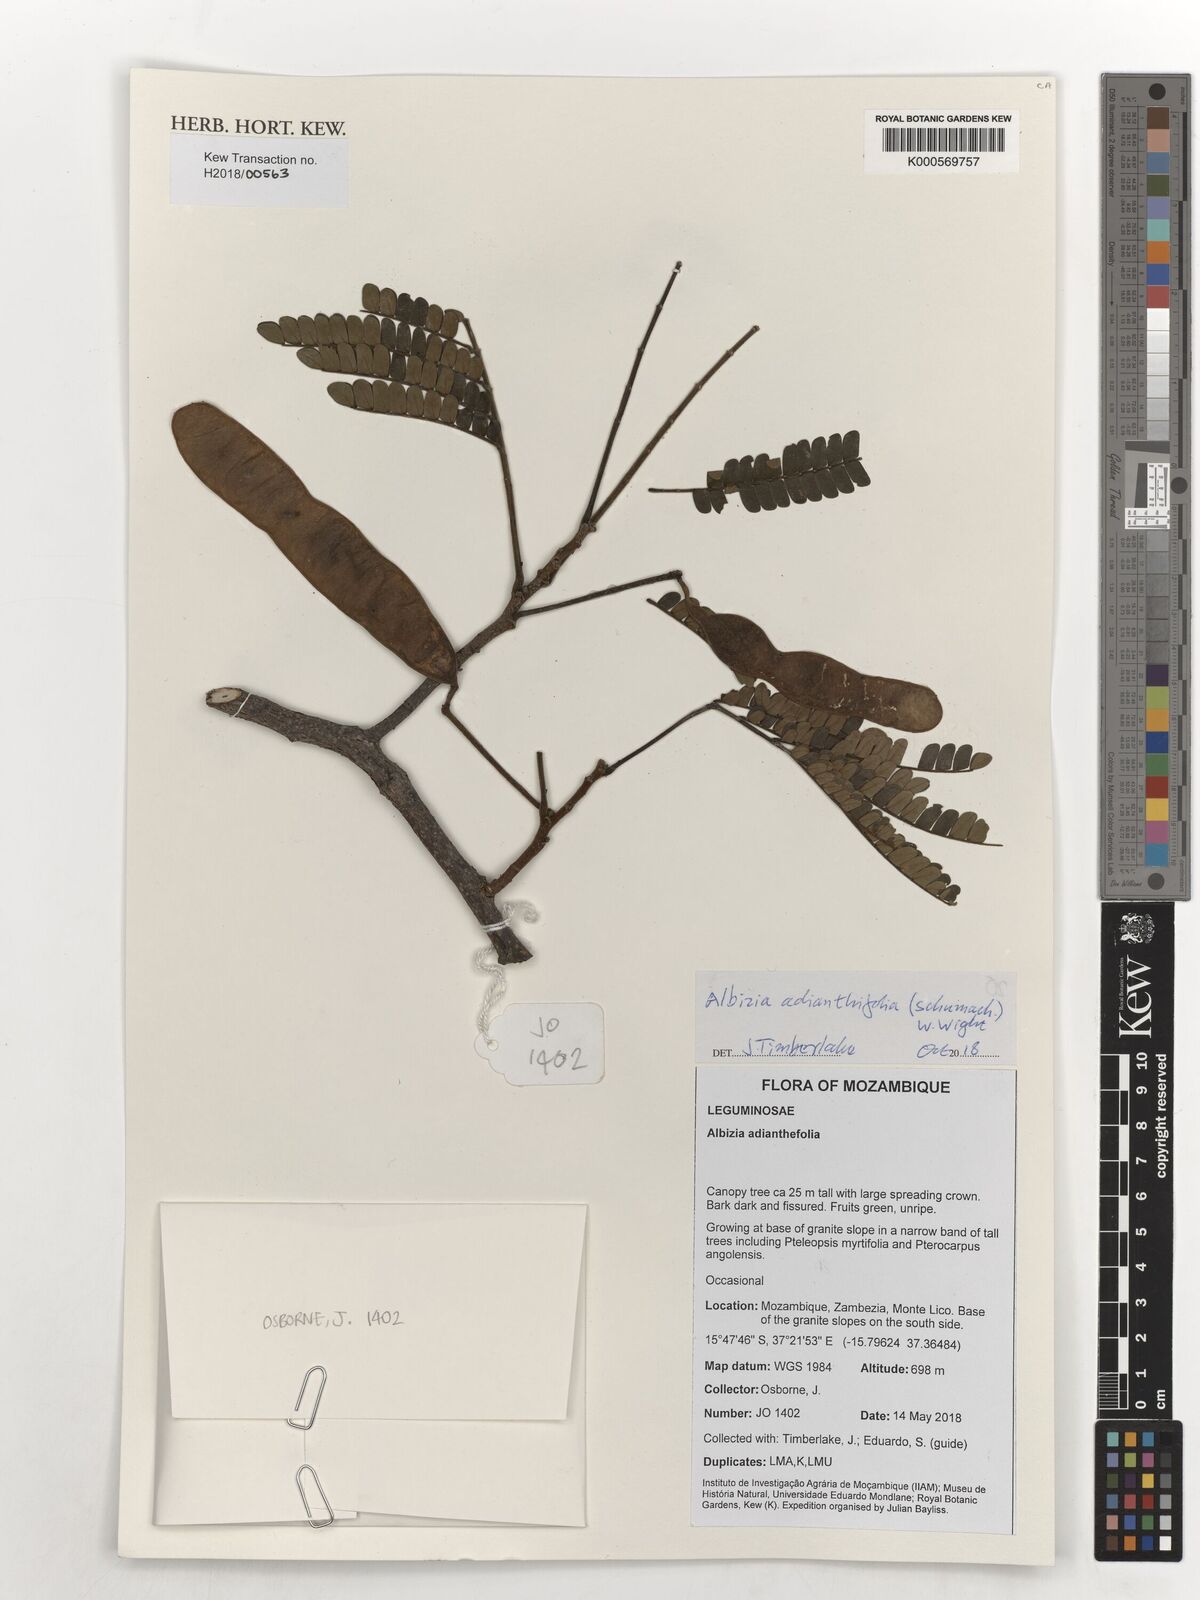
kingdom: Plantae
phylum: Tracheophyta
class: Magnoliopsida
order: Fabales
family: Fabaceae
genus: Albizia
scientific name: Albizia adianthifolia
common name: West african albizia
